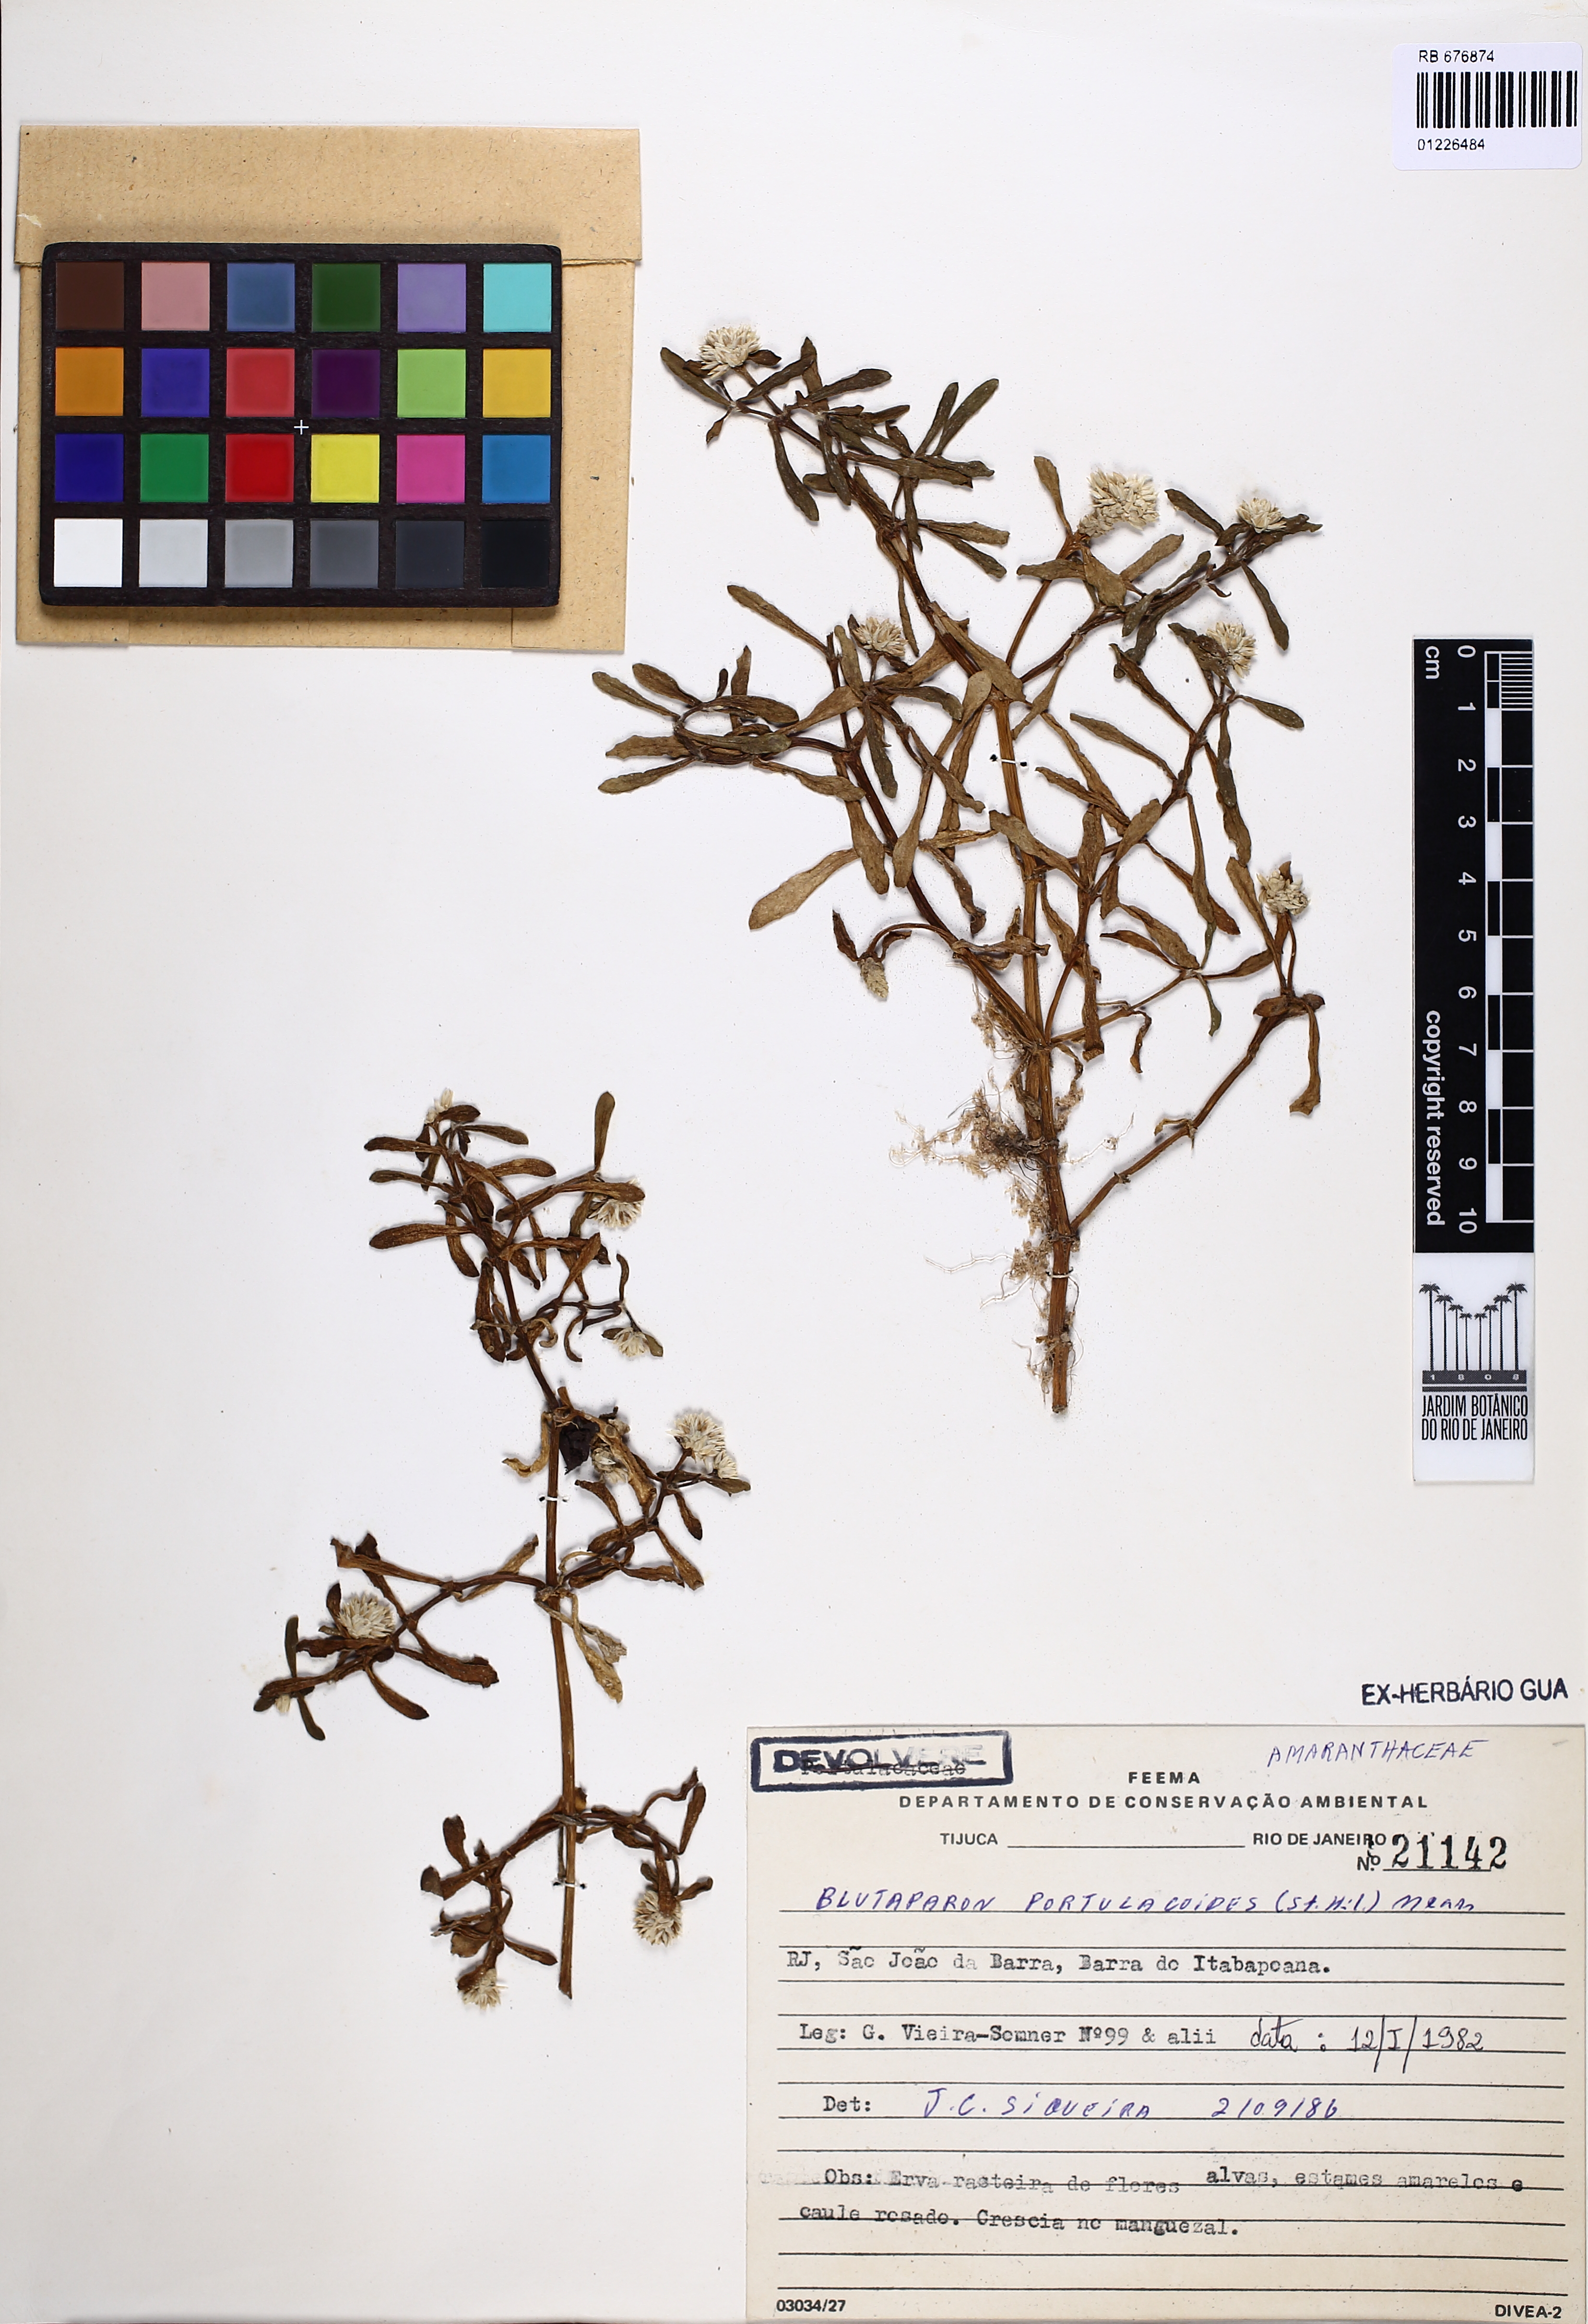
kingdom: Plantae
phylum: Tracheophyta
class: Magnoliopsida
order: Caryophyllales
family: Amaranthaceae
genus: Gomphrena
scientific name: Gomphrena portulacoides
